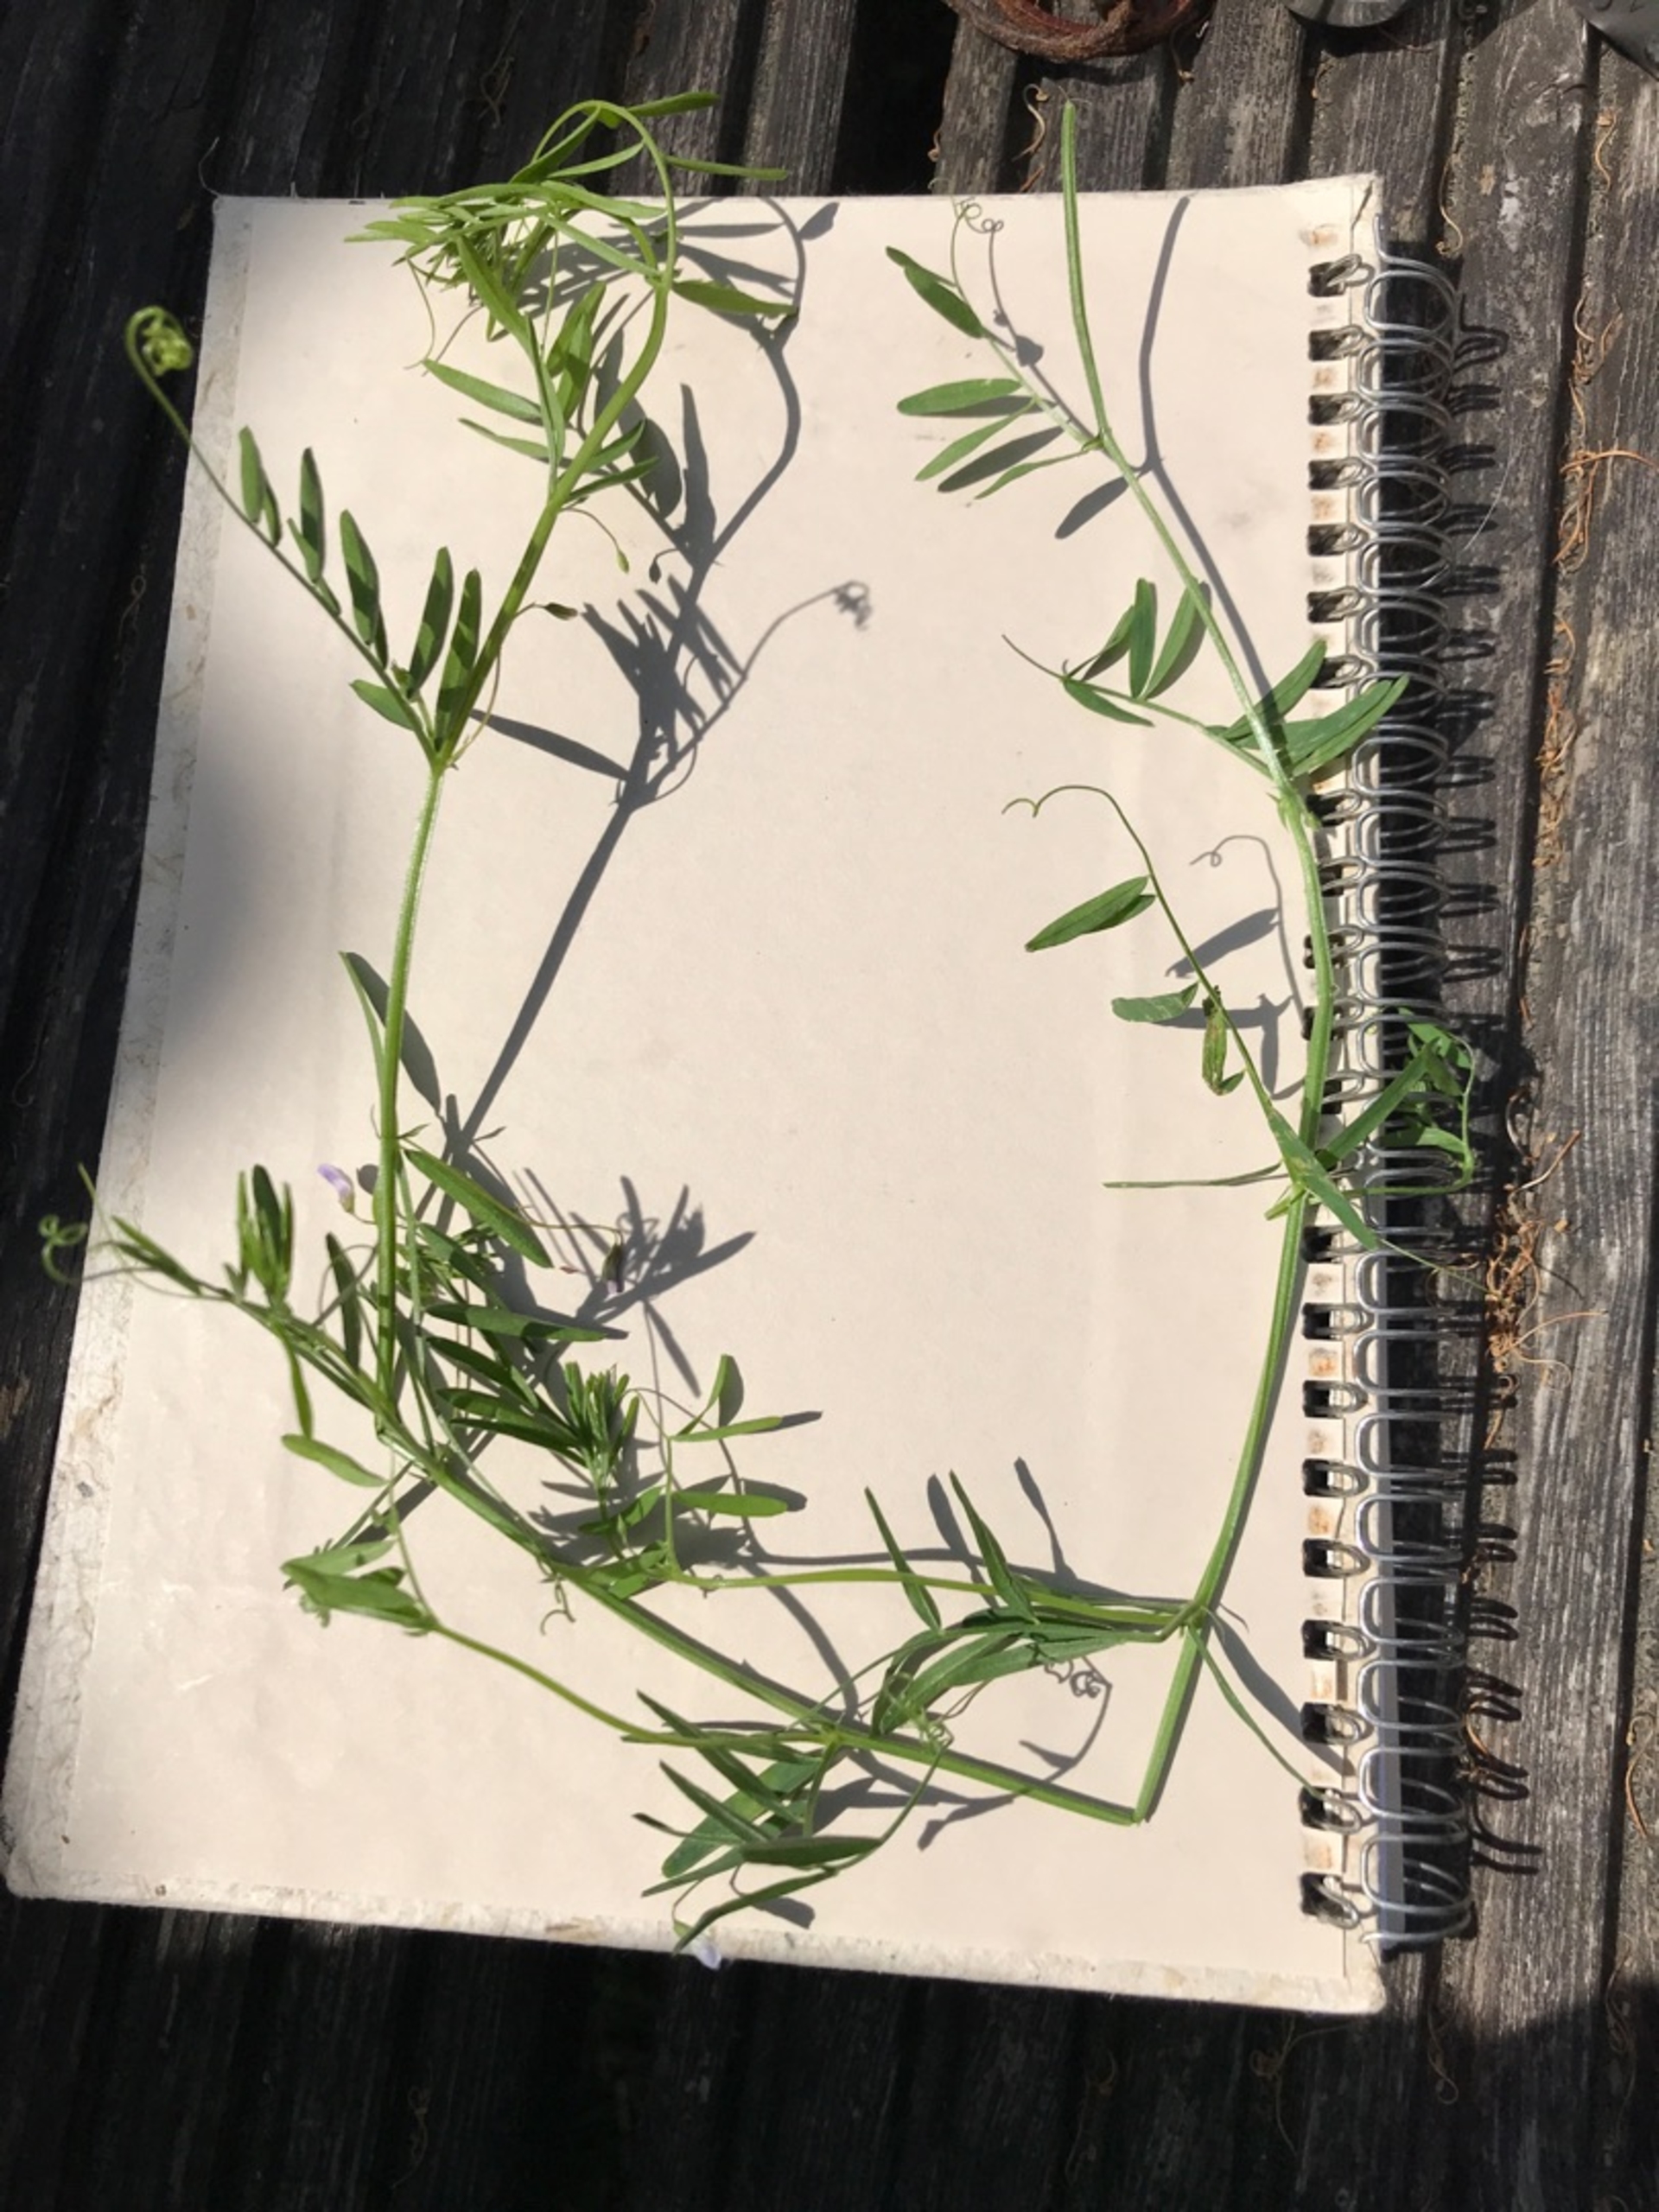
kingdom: Plantae
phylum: Tracheophyta
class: Magnoliopsida
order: Fabales
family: Fabaceae
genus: Vicia
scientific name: Vicia tetrasperma
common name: Tadder-vikke
